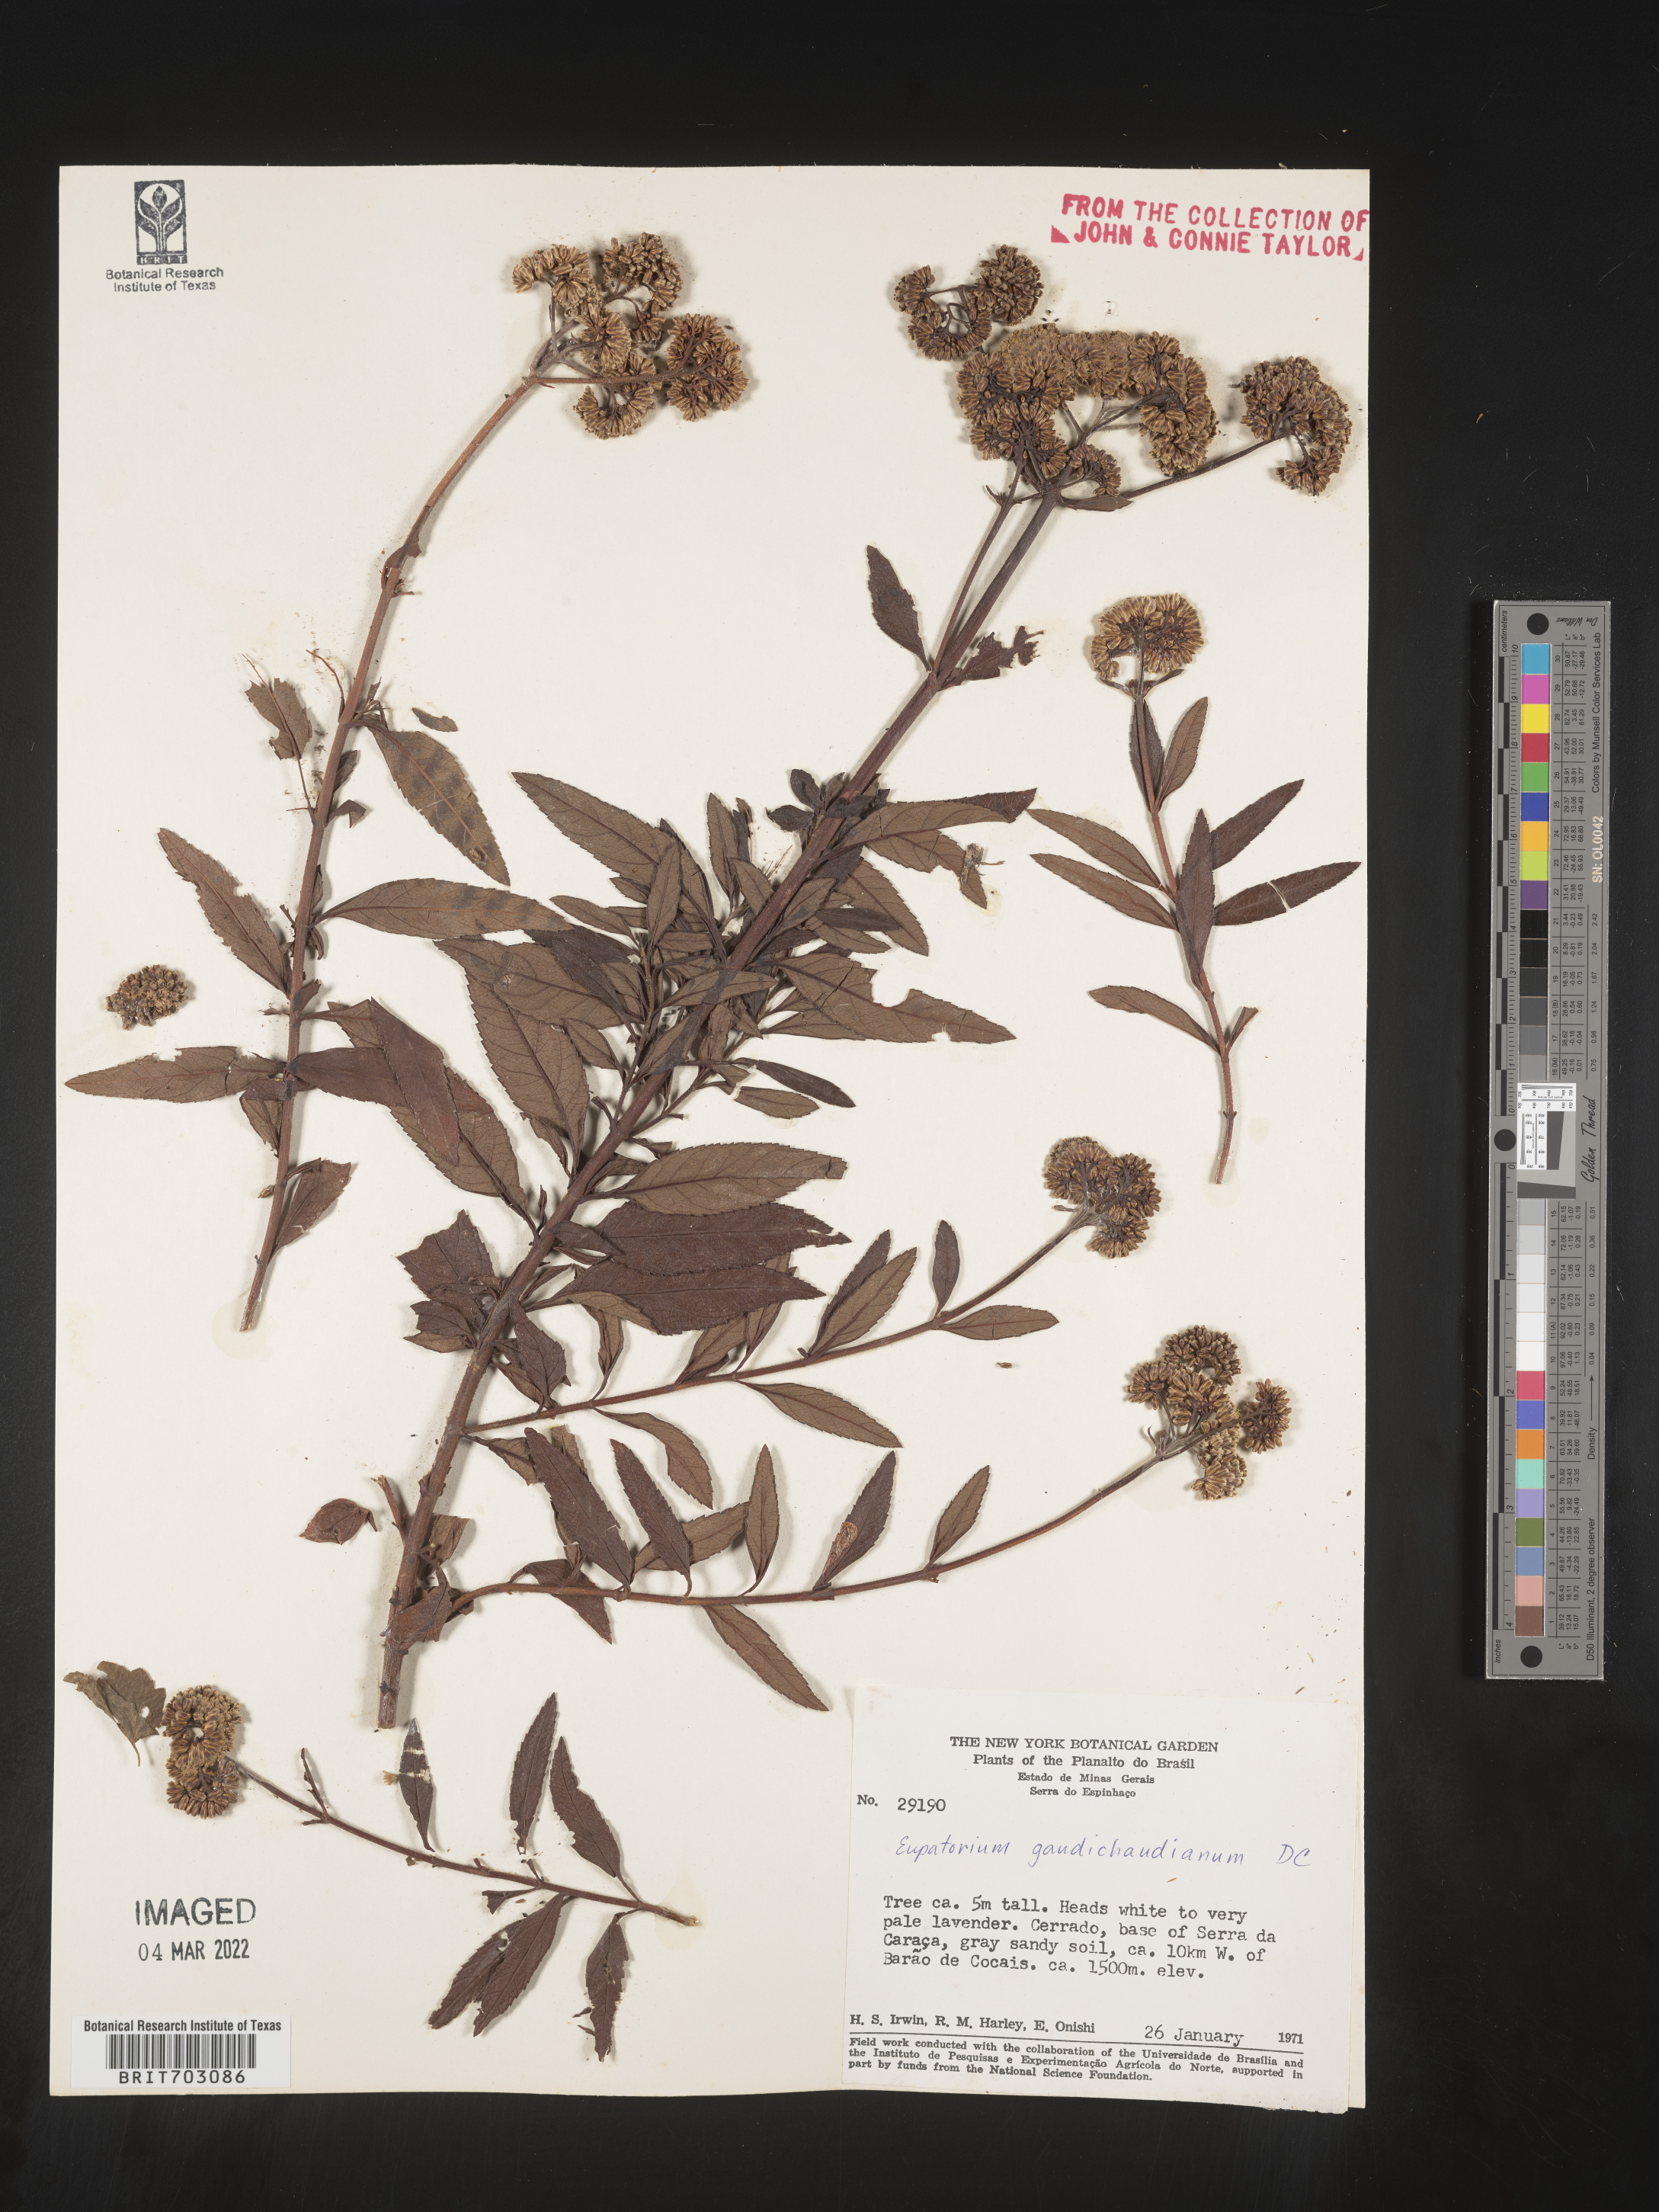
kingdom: Plantae
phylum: Tracheophyta
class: Magnoliopsida
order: Asterales
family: Asteraceae
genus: Eupatorium
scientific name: Eupatorium
